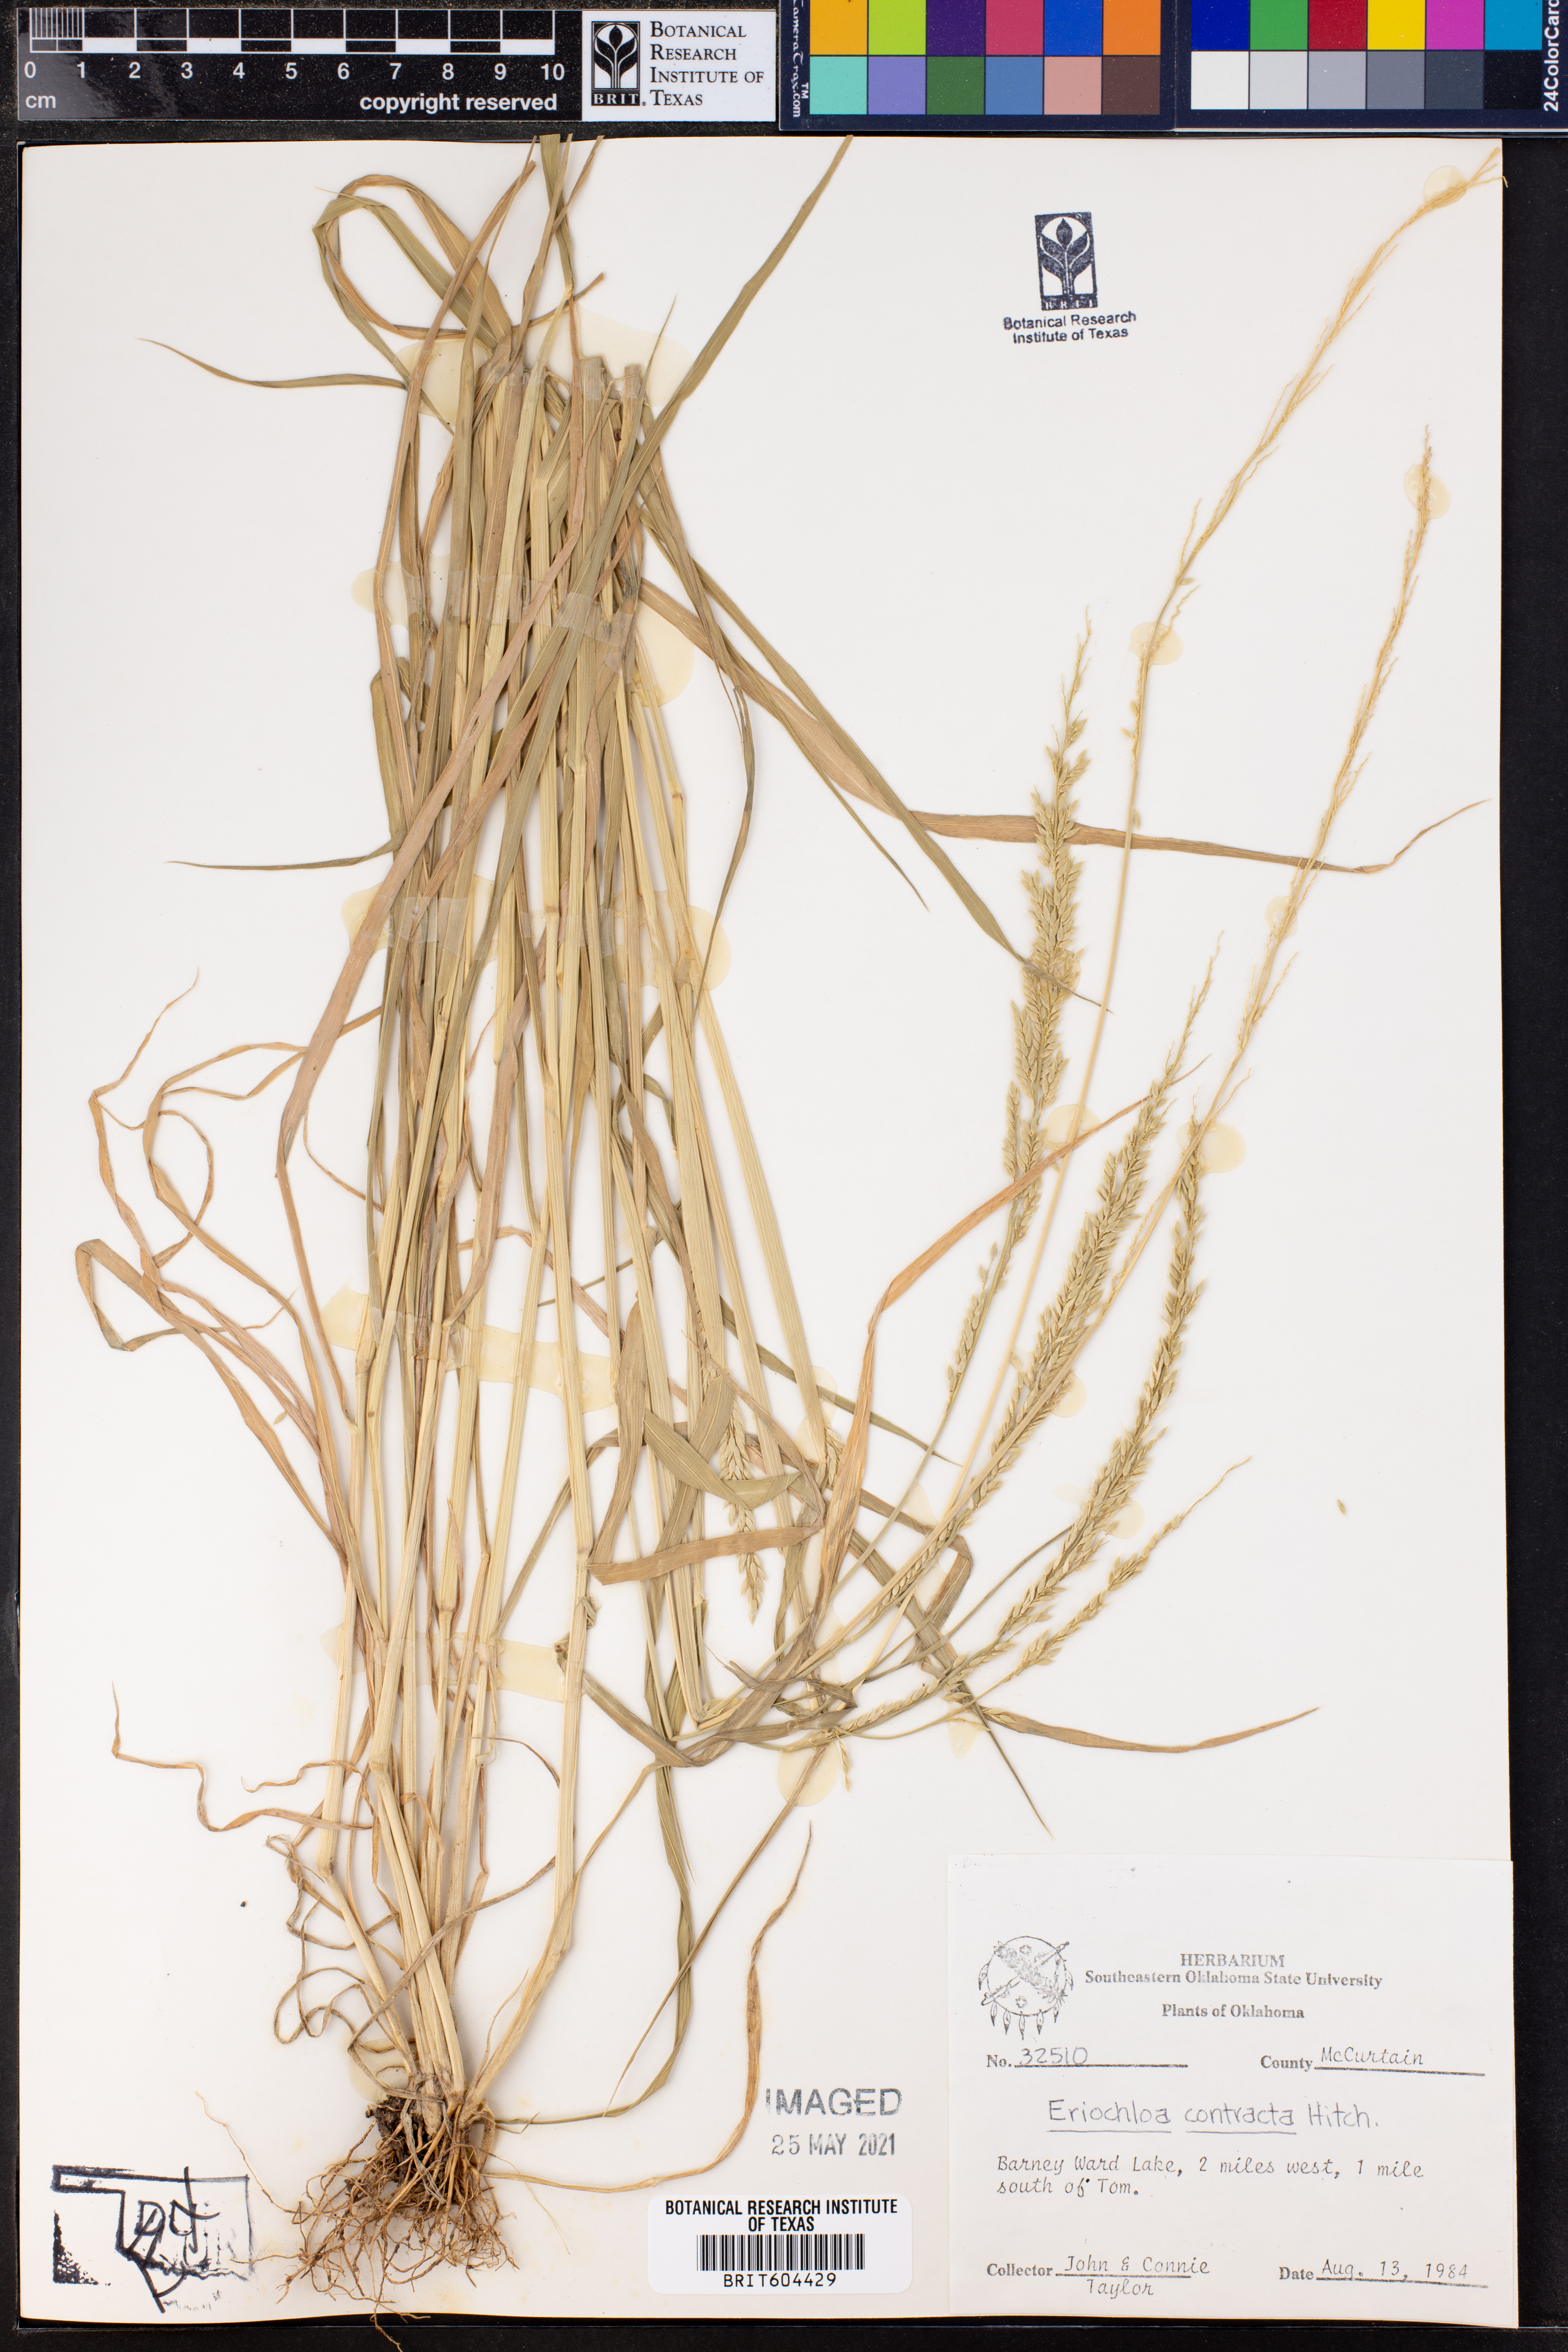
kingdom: Plantae
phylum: Tracheophyta
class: Liliopsida
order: Poales
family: Poaceae
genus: Eriochloa
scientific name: Eriochloa contracta
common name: Prairie cup grass
